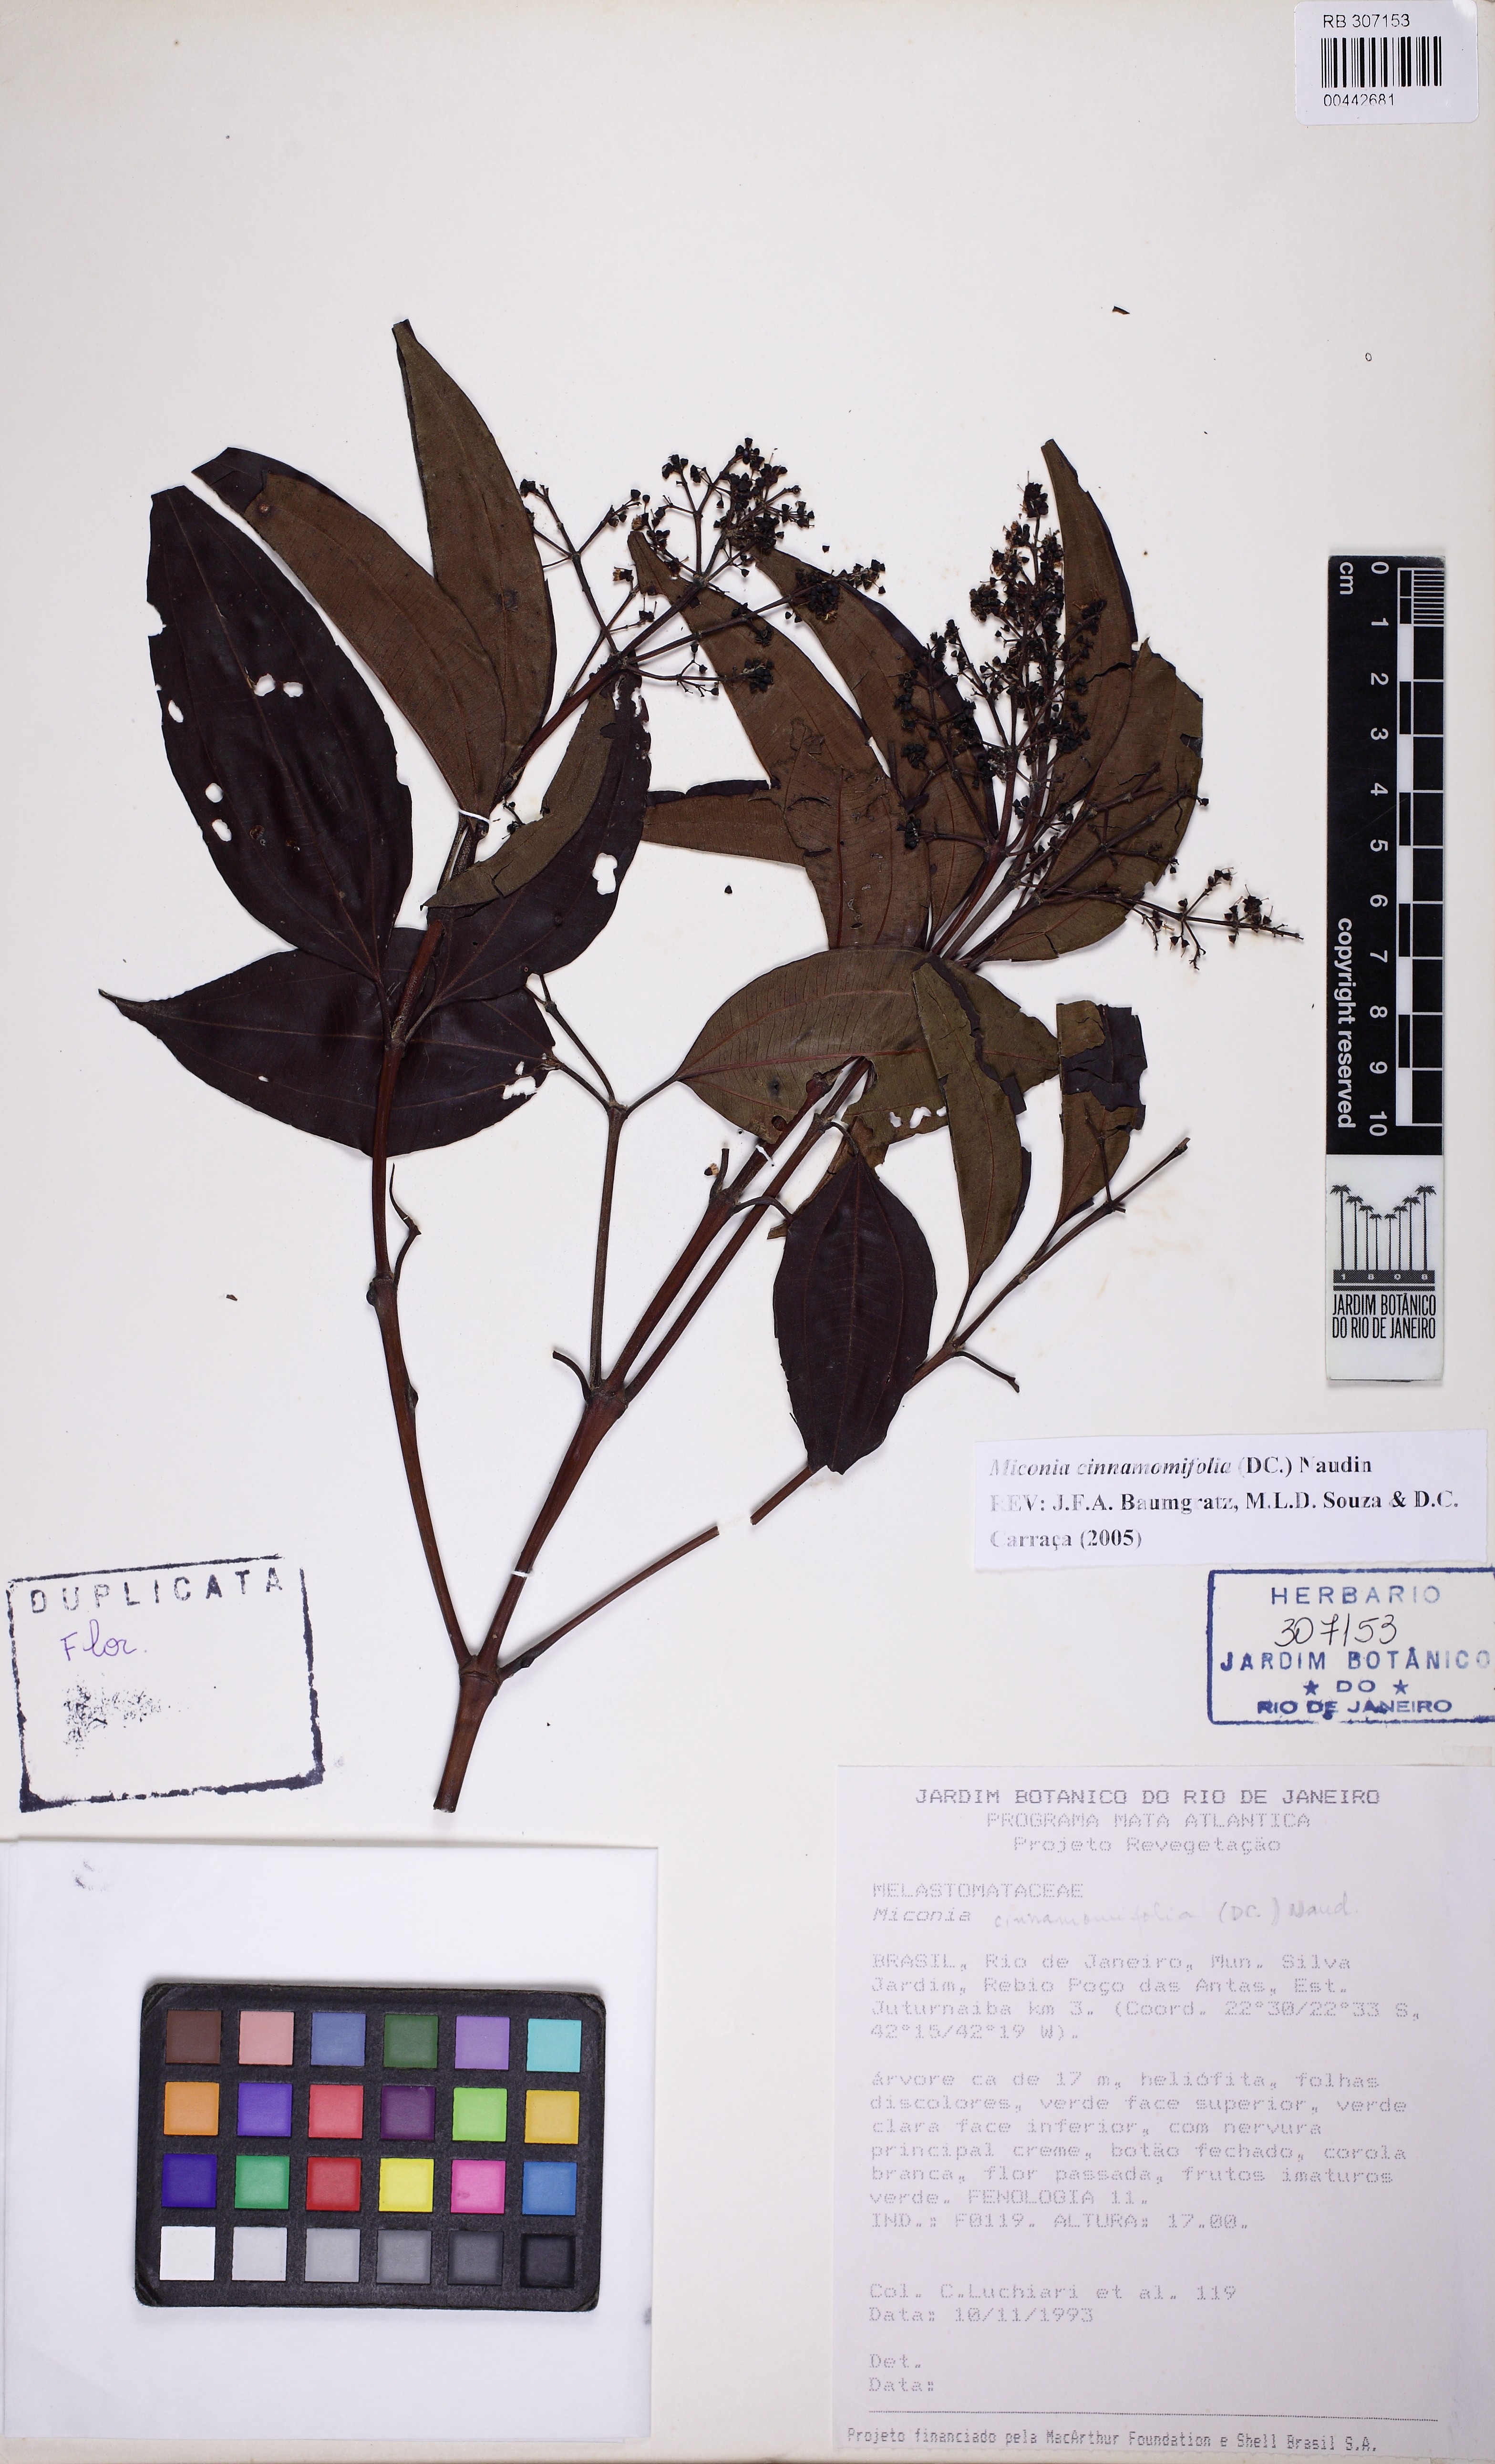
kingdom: Plantae
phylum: Tracheophyta
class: Magnoliopsida
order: Myrtales
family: Melastomataceae
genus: Miconia
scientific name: Miconia cinnamomifolia
